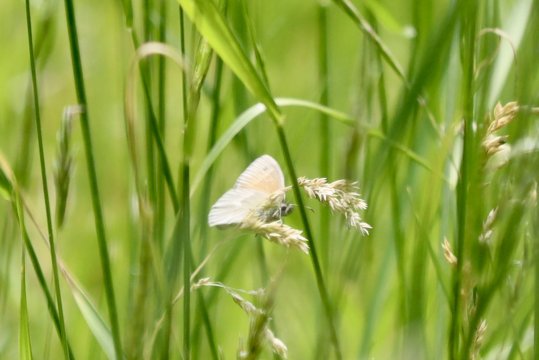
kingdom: Animalia
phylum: Arthropoda
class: Insecta
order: Lepidoptera
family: Nymphalidae
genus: Coenonympha
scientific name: Coenonympha
